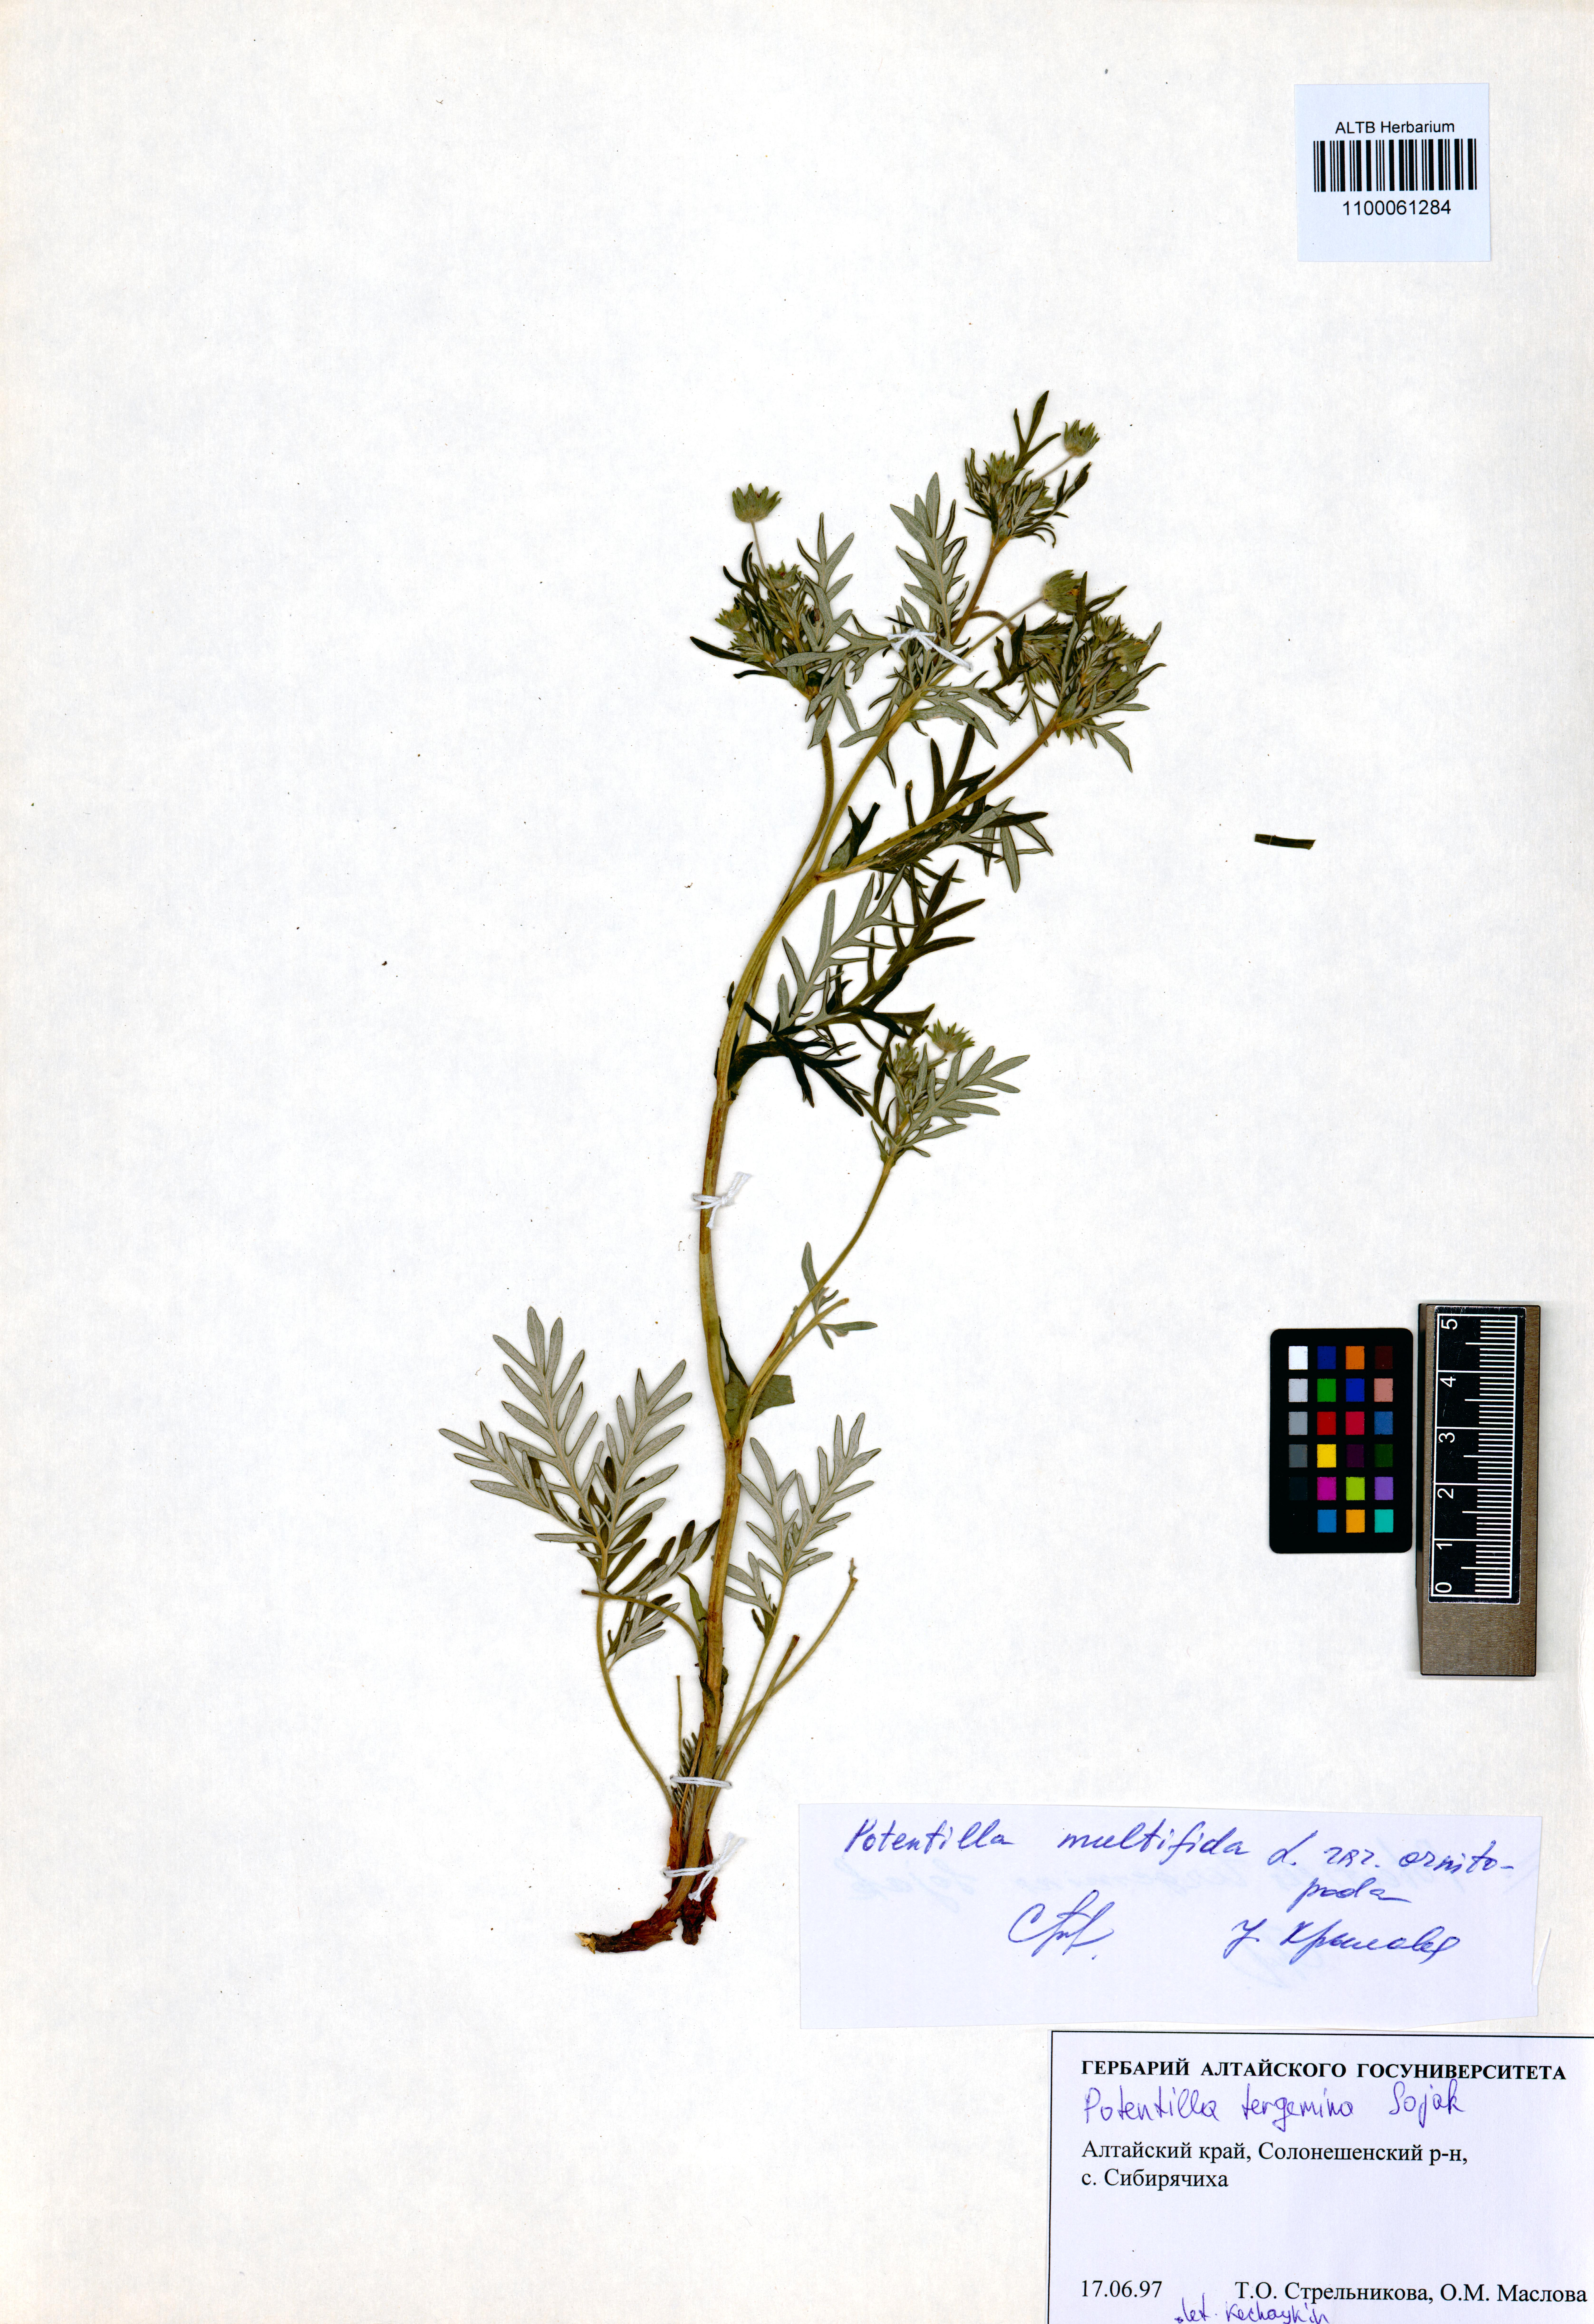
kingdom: Plantae
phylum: Tracheophyta
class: Magnoliopsida
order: Rosales
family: Rosaceae
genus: Potentilla
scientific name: Potentilla tergemina
